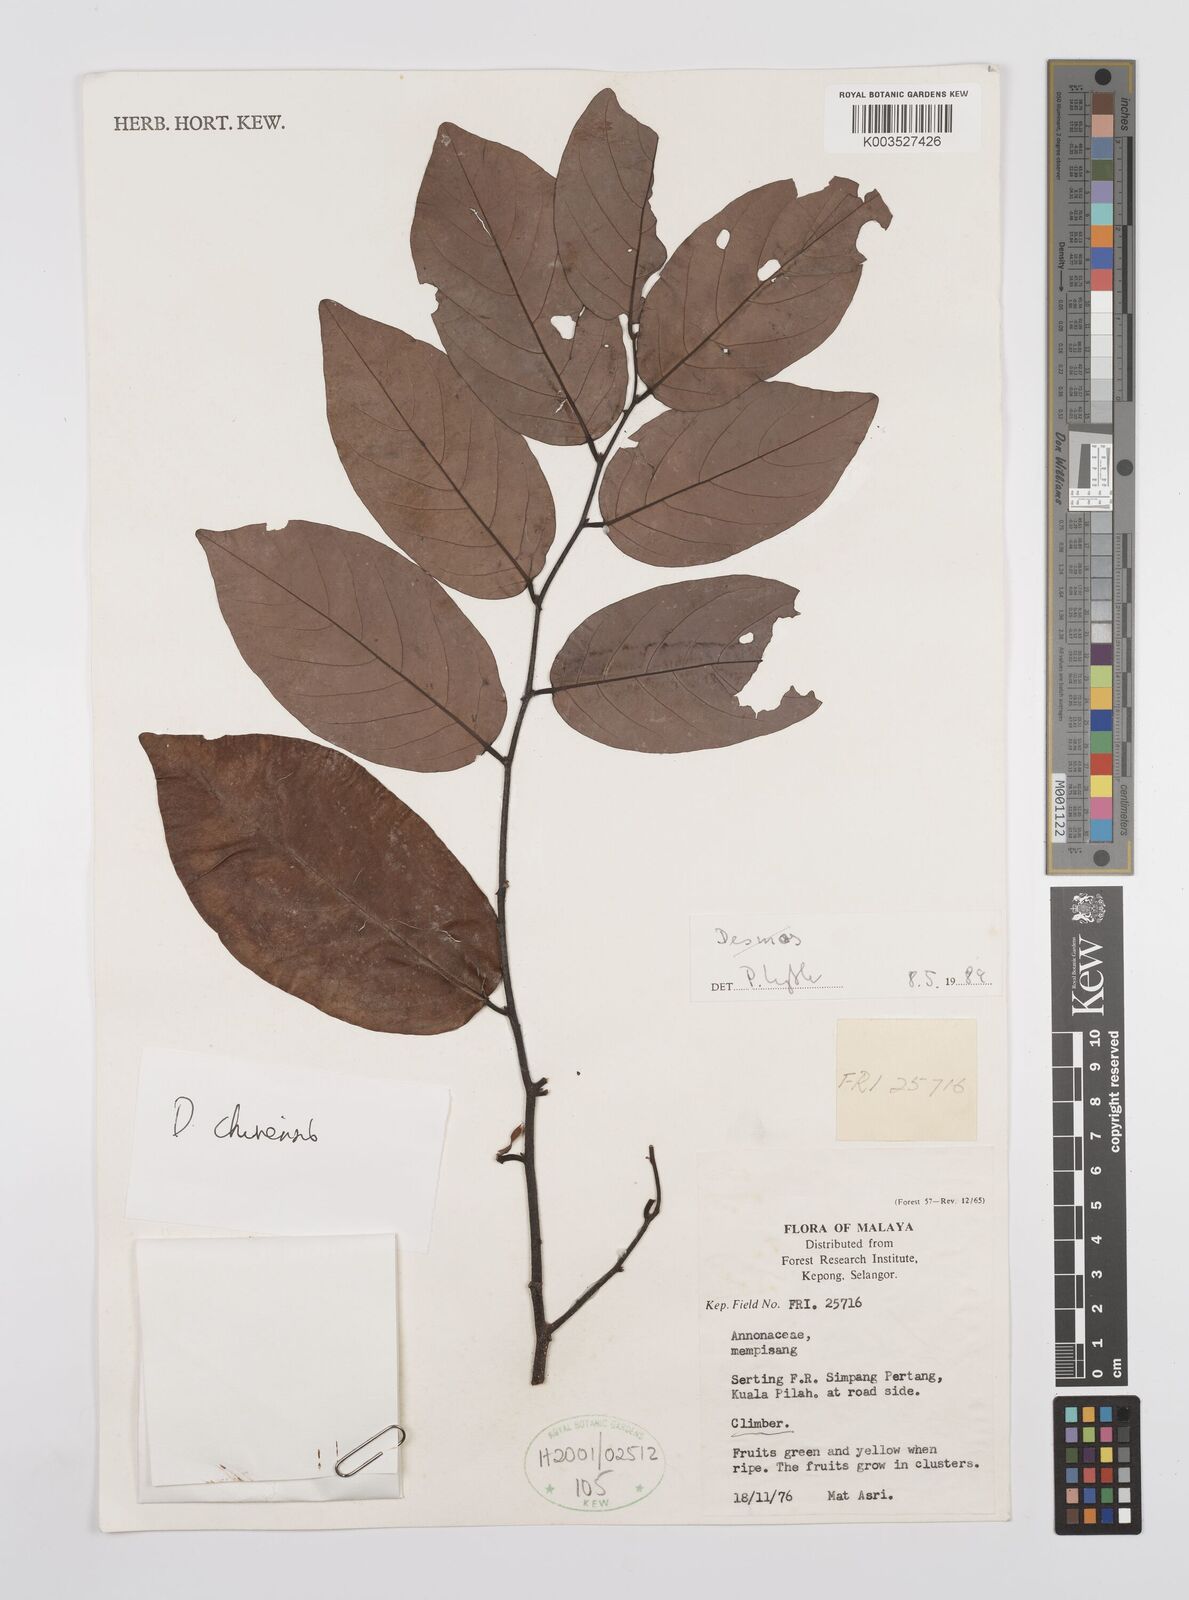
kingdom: Plantae
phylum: Tracheophyta
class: Magnoliopsida
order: Magnoliales
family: Annonaceae
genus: Desmos
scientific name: Desmos chinensis
